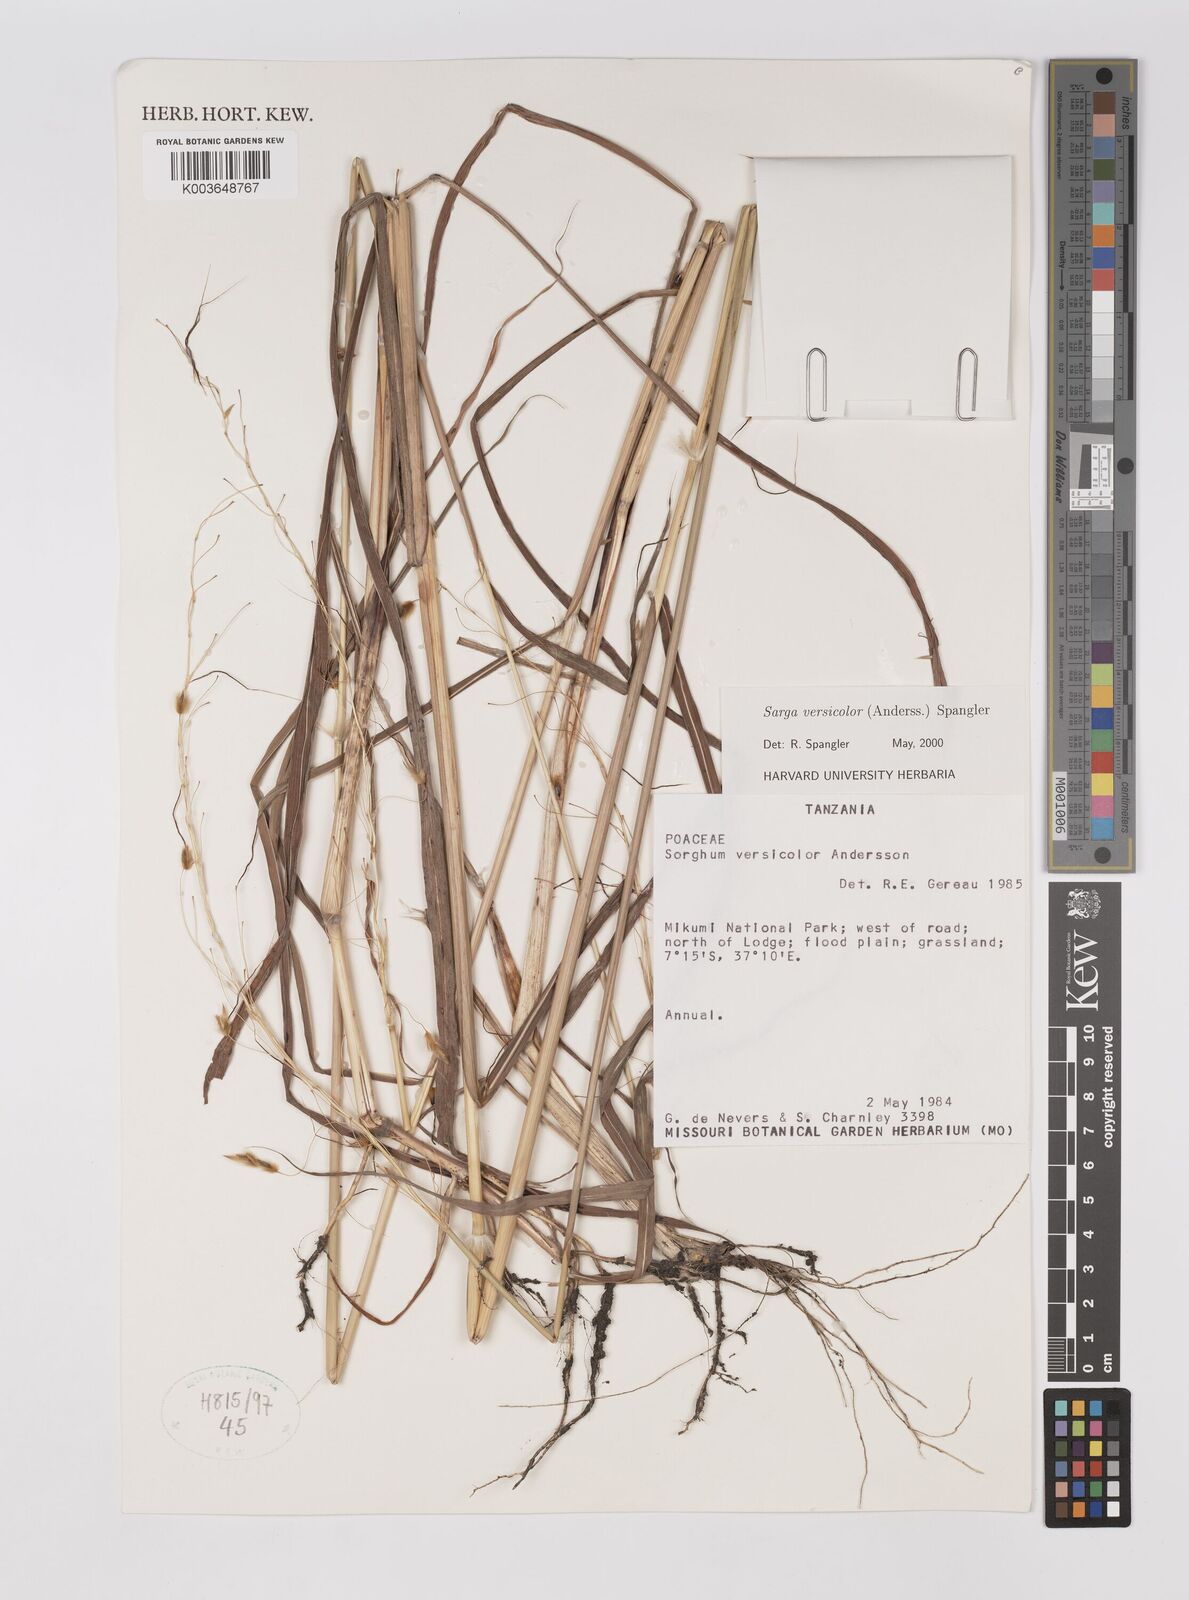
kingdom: Plantae
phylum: Tracheophyta
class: Liliopsida
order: Poales
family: Poaceae
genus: Sarga
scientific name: Sarga versicolor
